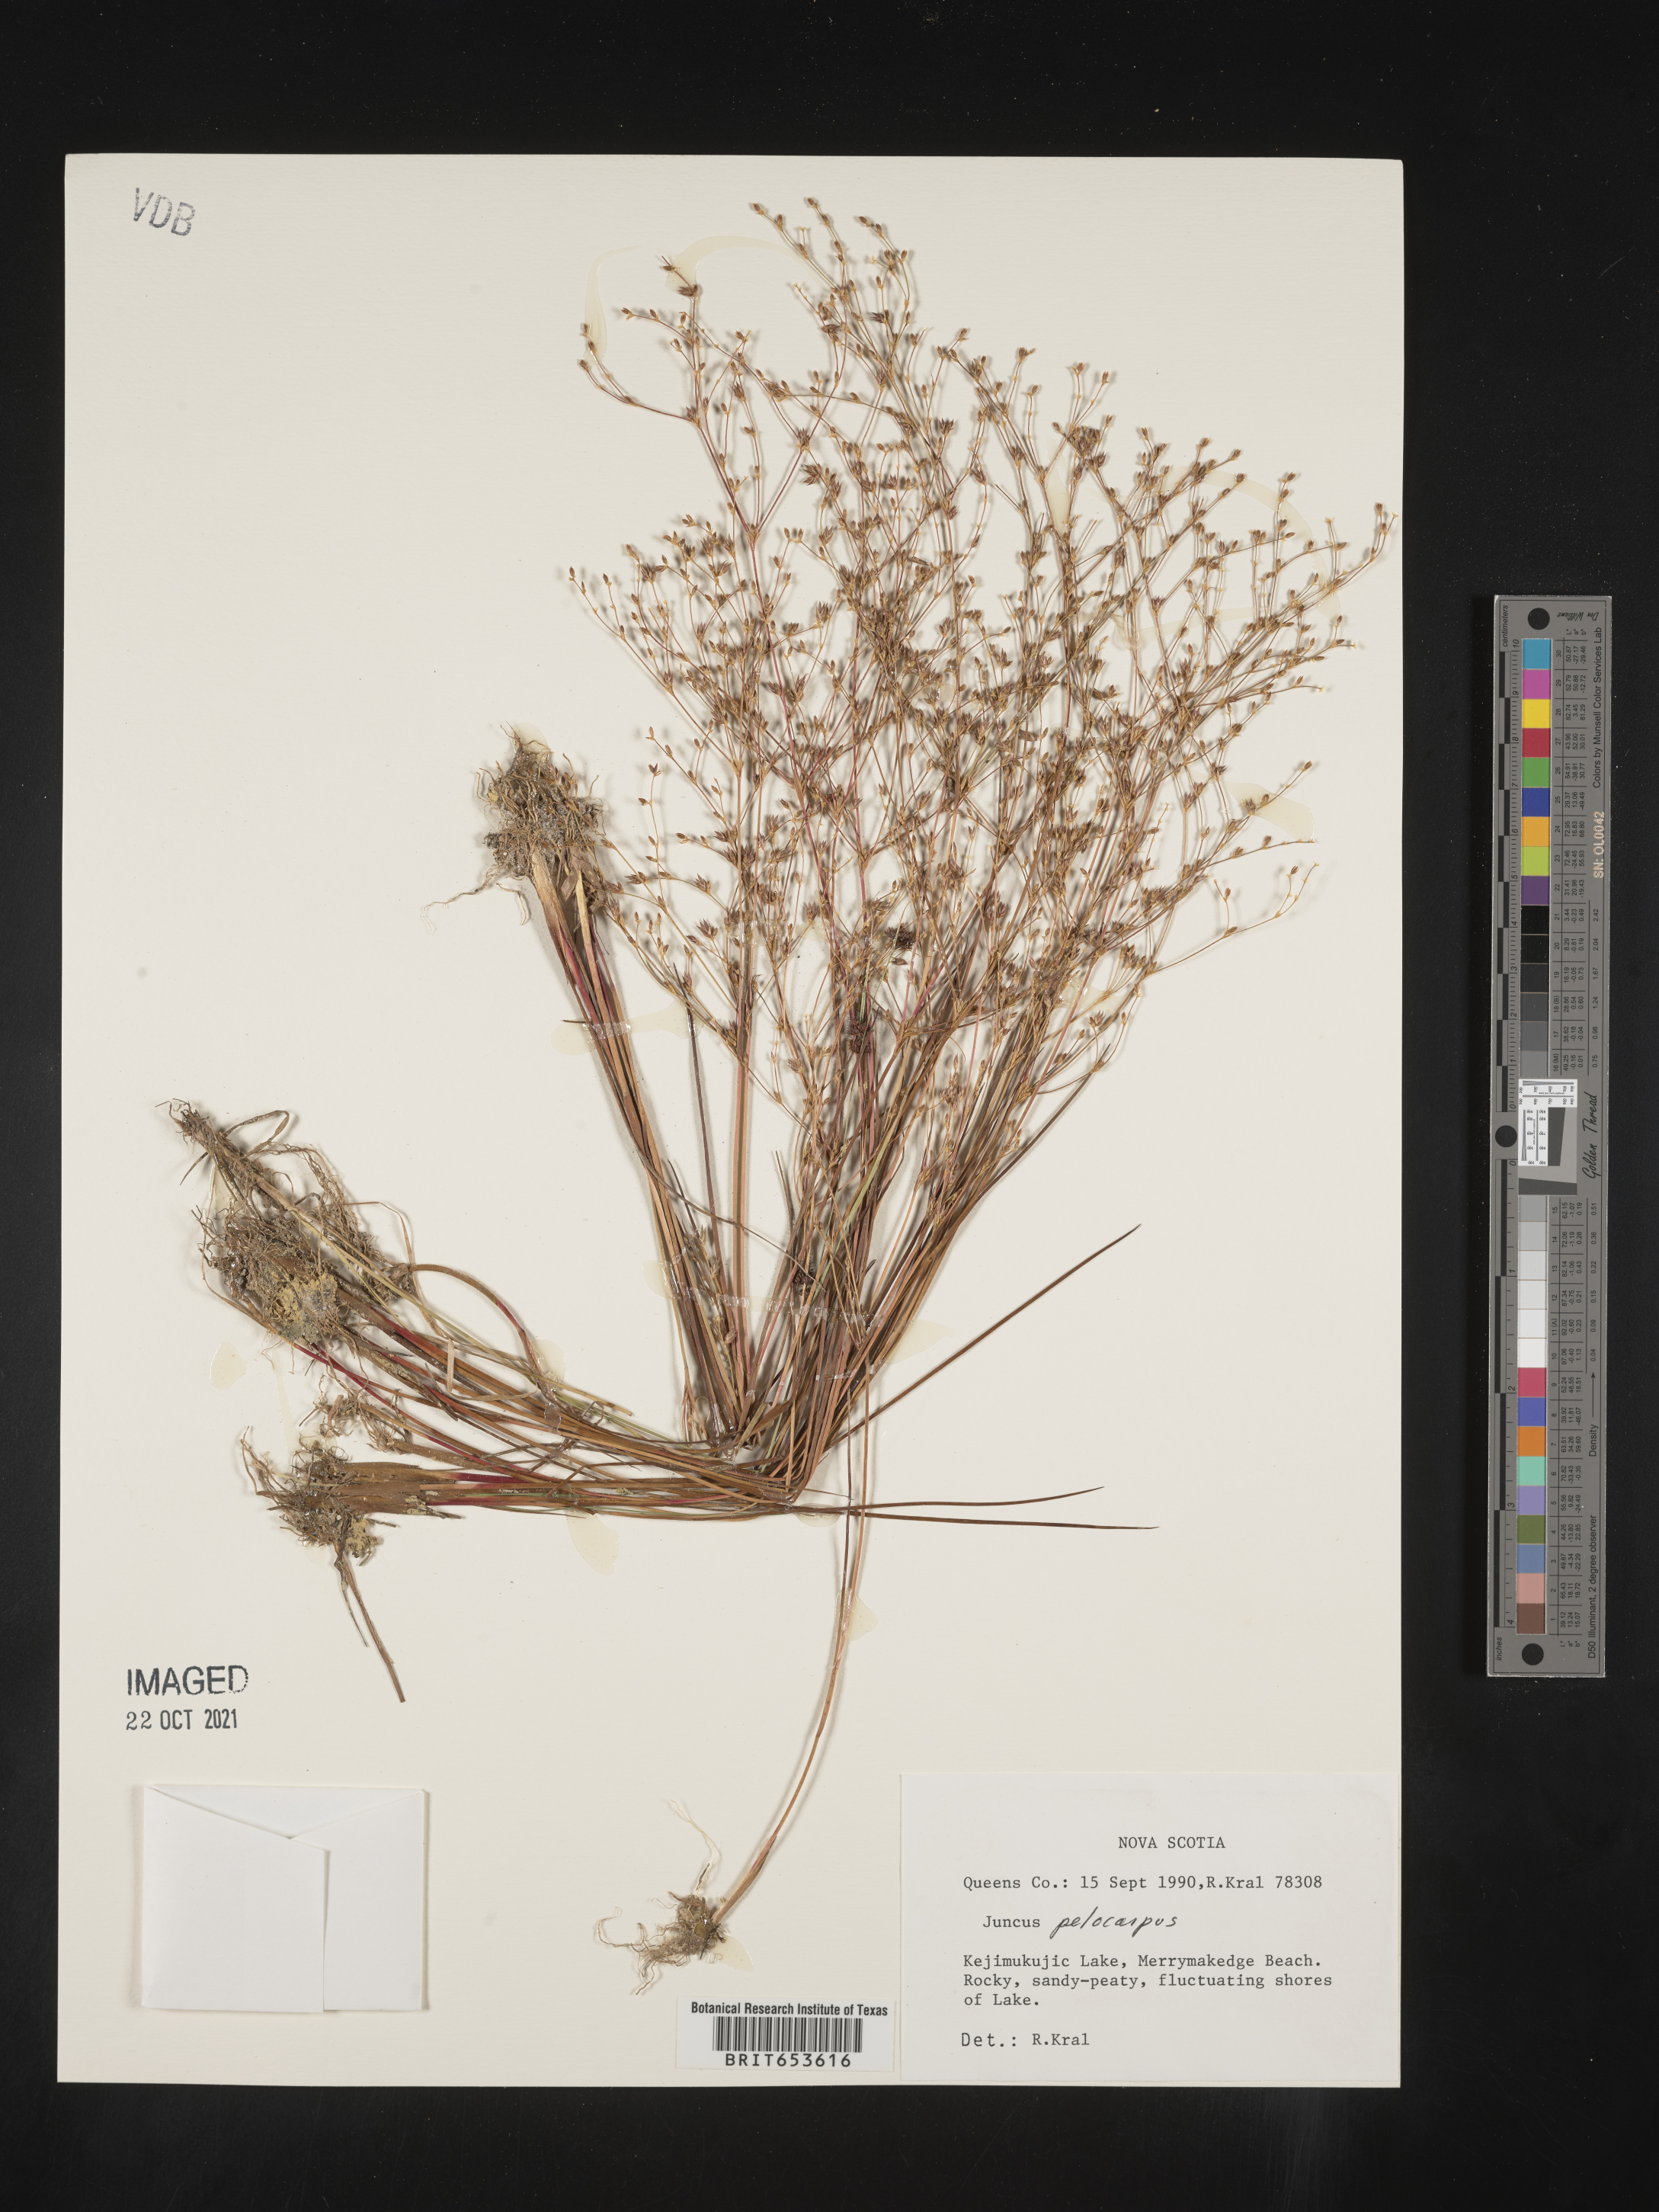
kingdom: Plantae
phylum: Tracheophyta
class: Liliopsida
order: Poales
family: Juncaceae
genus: Juncus
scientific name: Juncus
